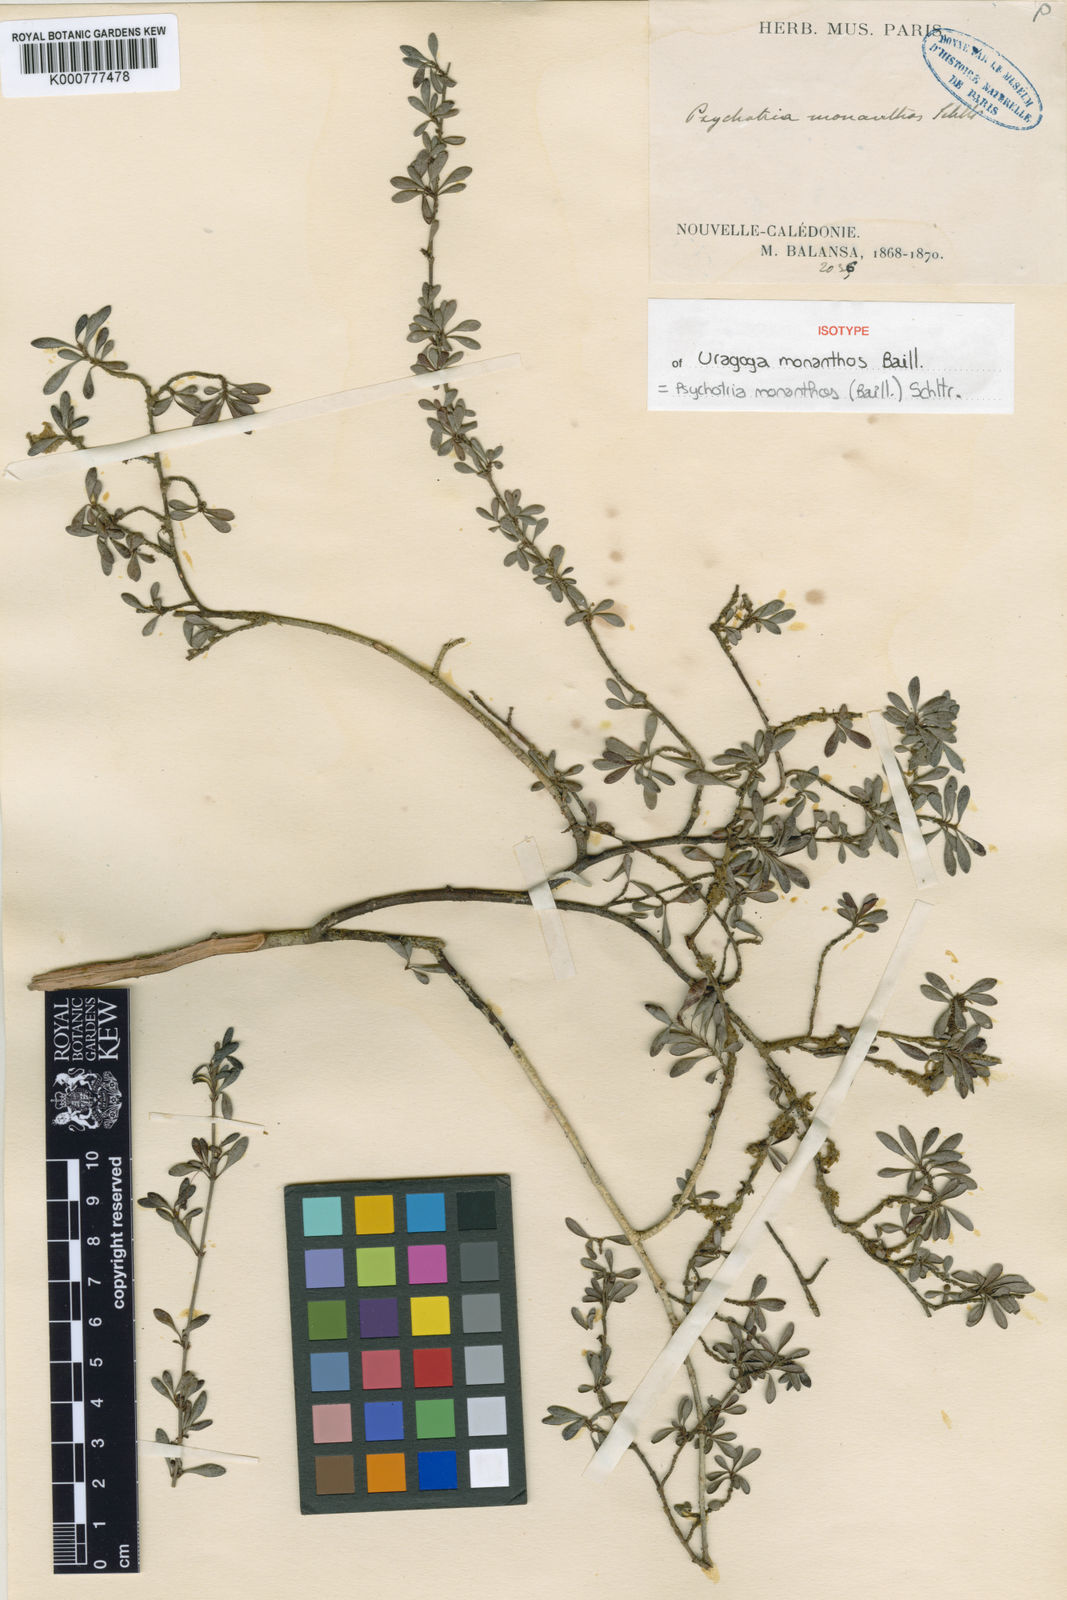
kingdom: Plantae
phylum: Tracheophyta
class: Magnoliopsida
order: Gentianales
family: Rubiaceae
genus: Psychotria
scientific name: Psychotria monanthos
